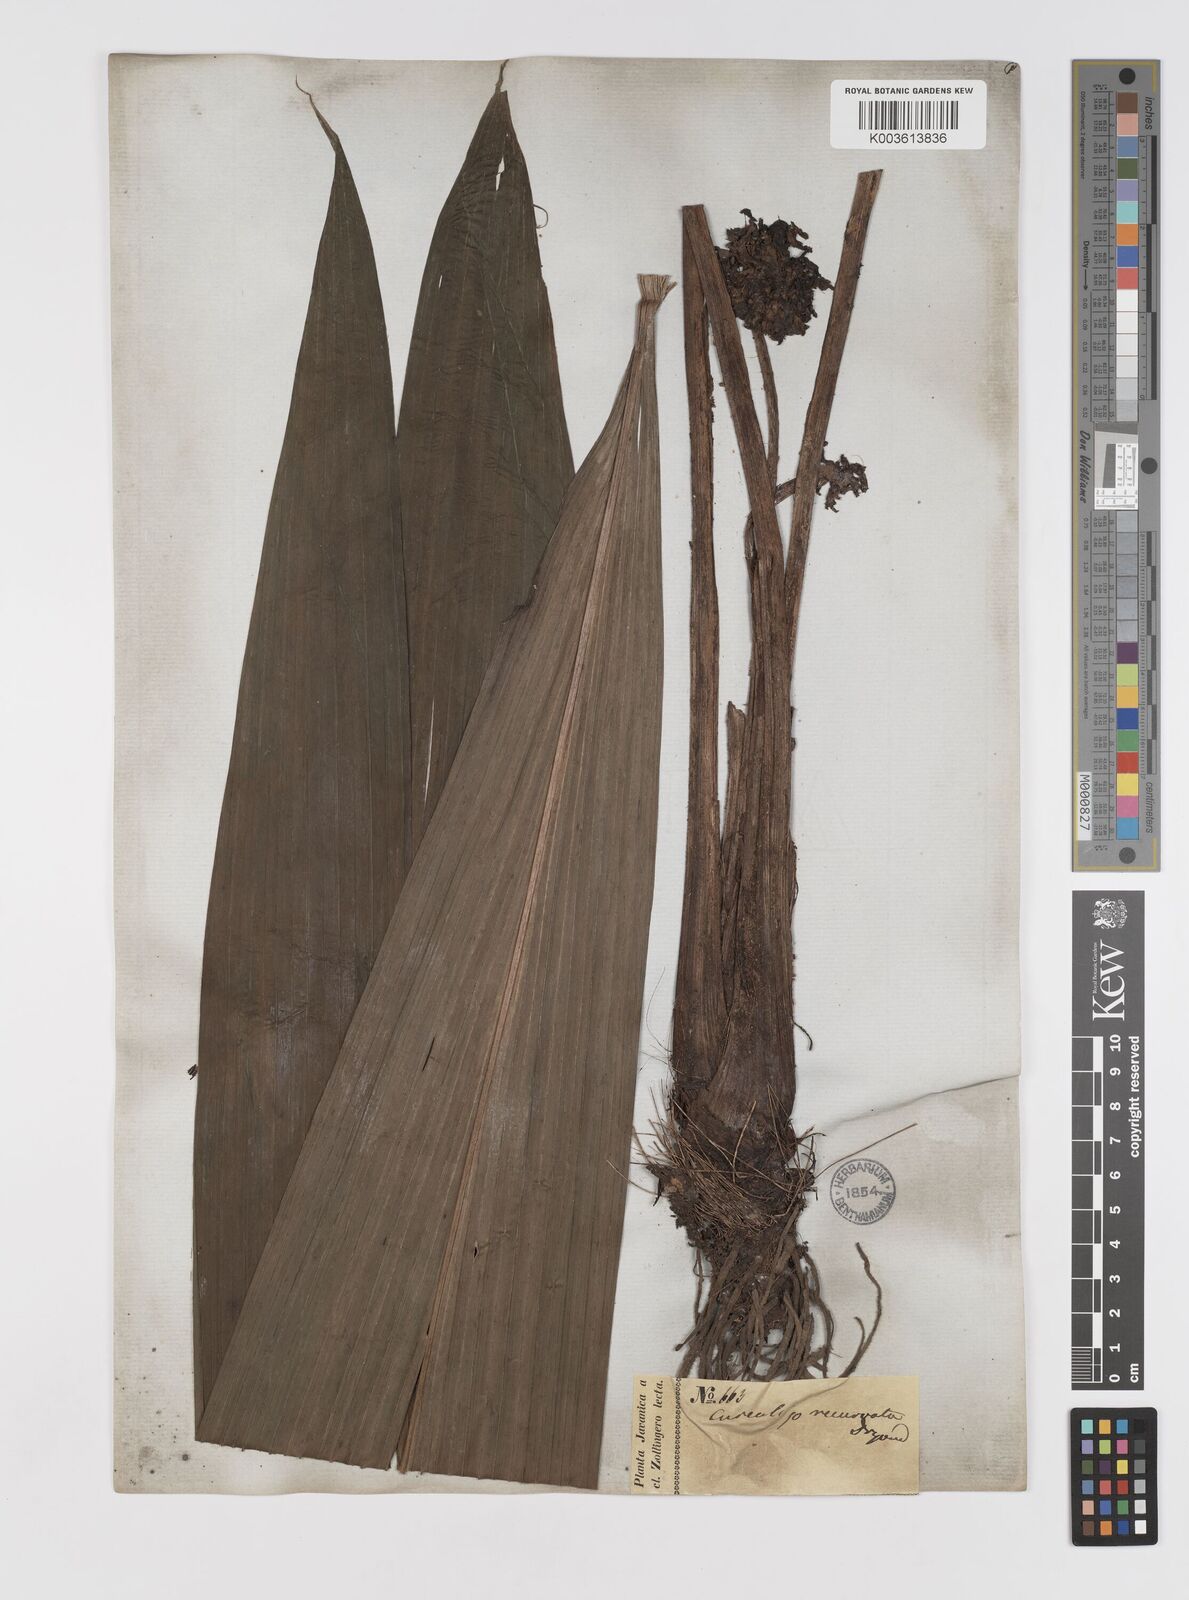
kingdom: Plantae
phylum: Tracheophyta
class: Liliopsida
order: Asparagales
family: Hypoxidaceae
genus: Curculigo
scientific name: Curculigo capitulata
